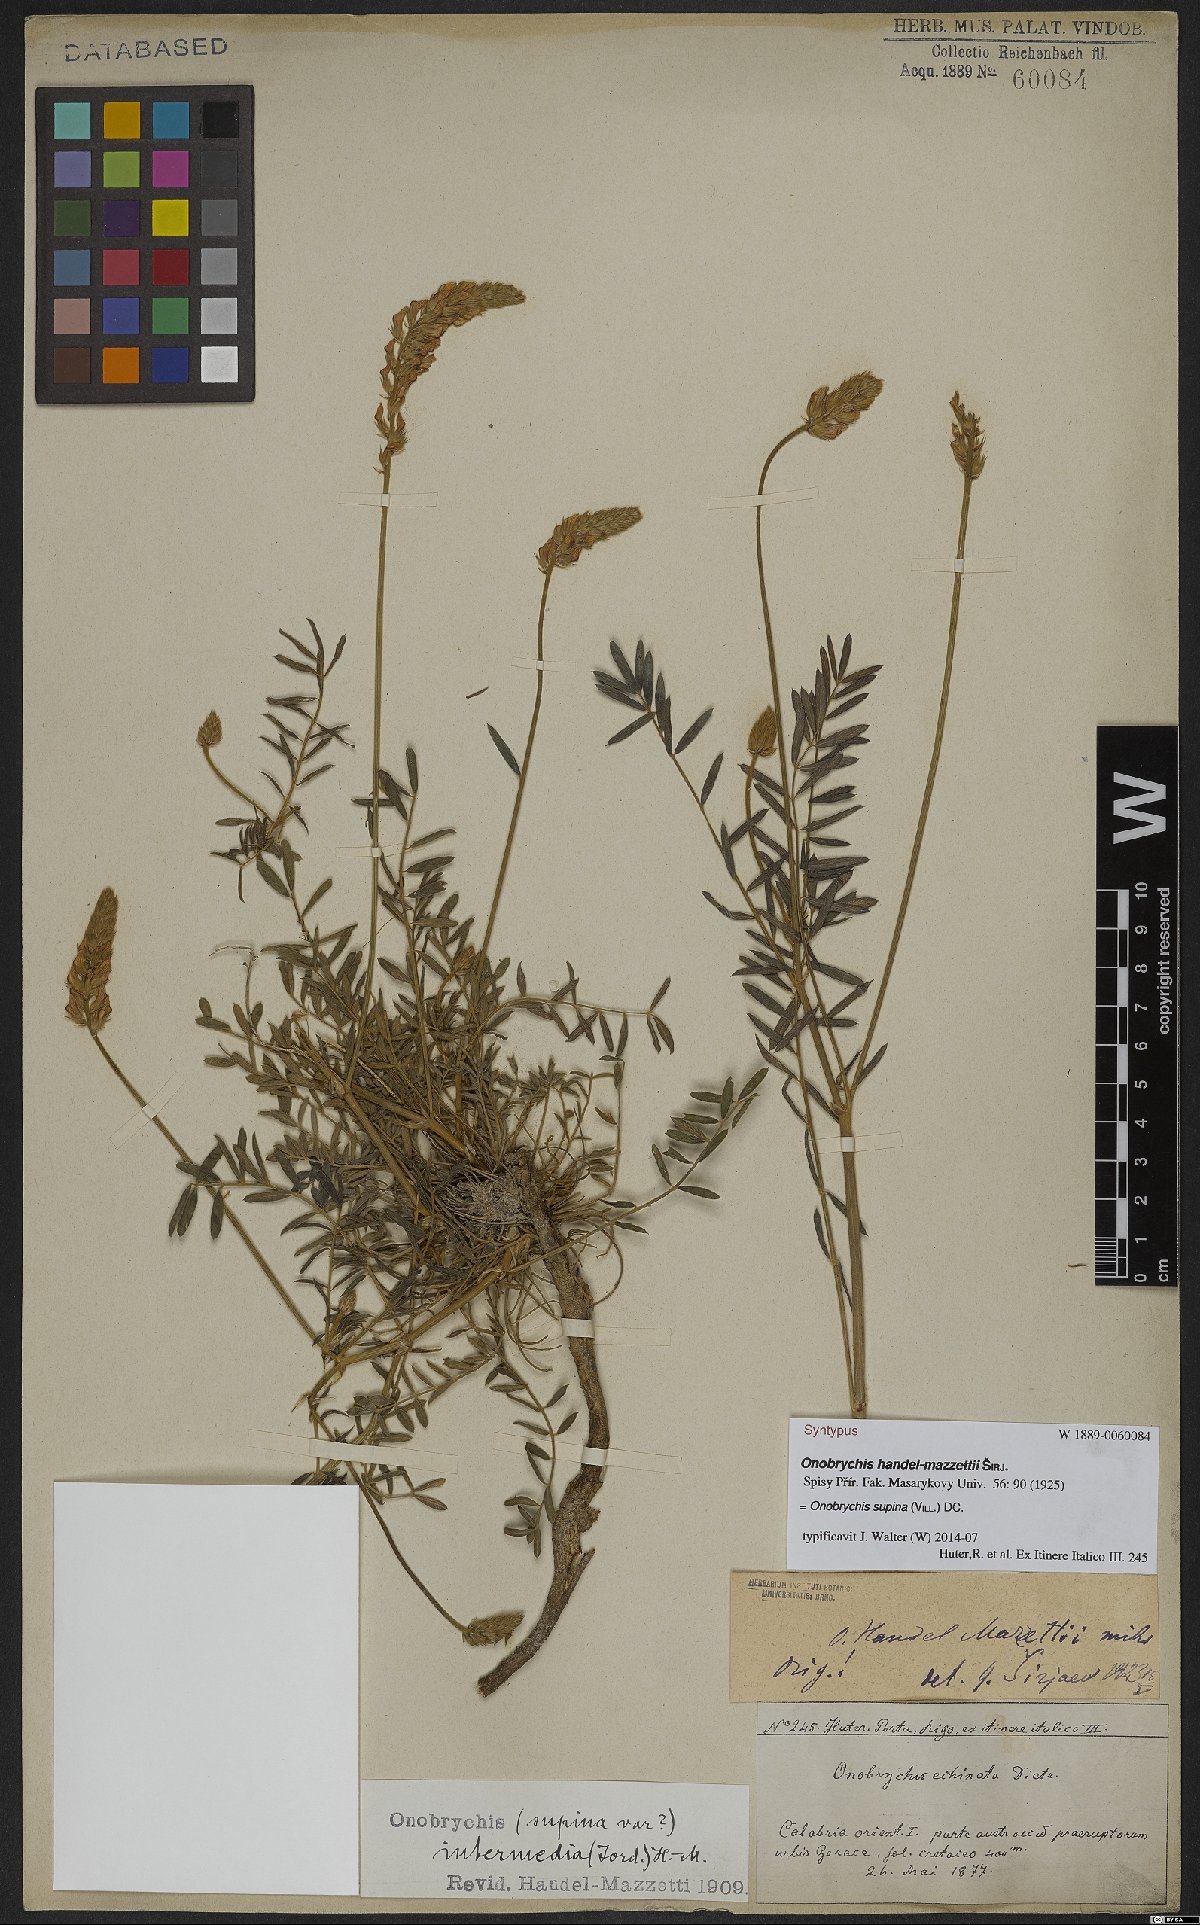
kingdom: Plantae
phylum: Tracheophyta
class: Magnoliopsida
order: Fabales
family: Fabaceae
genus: Onobrychis
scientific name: Onobrychis supina
